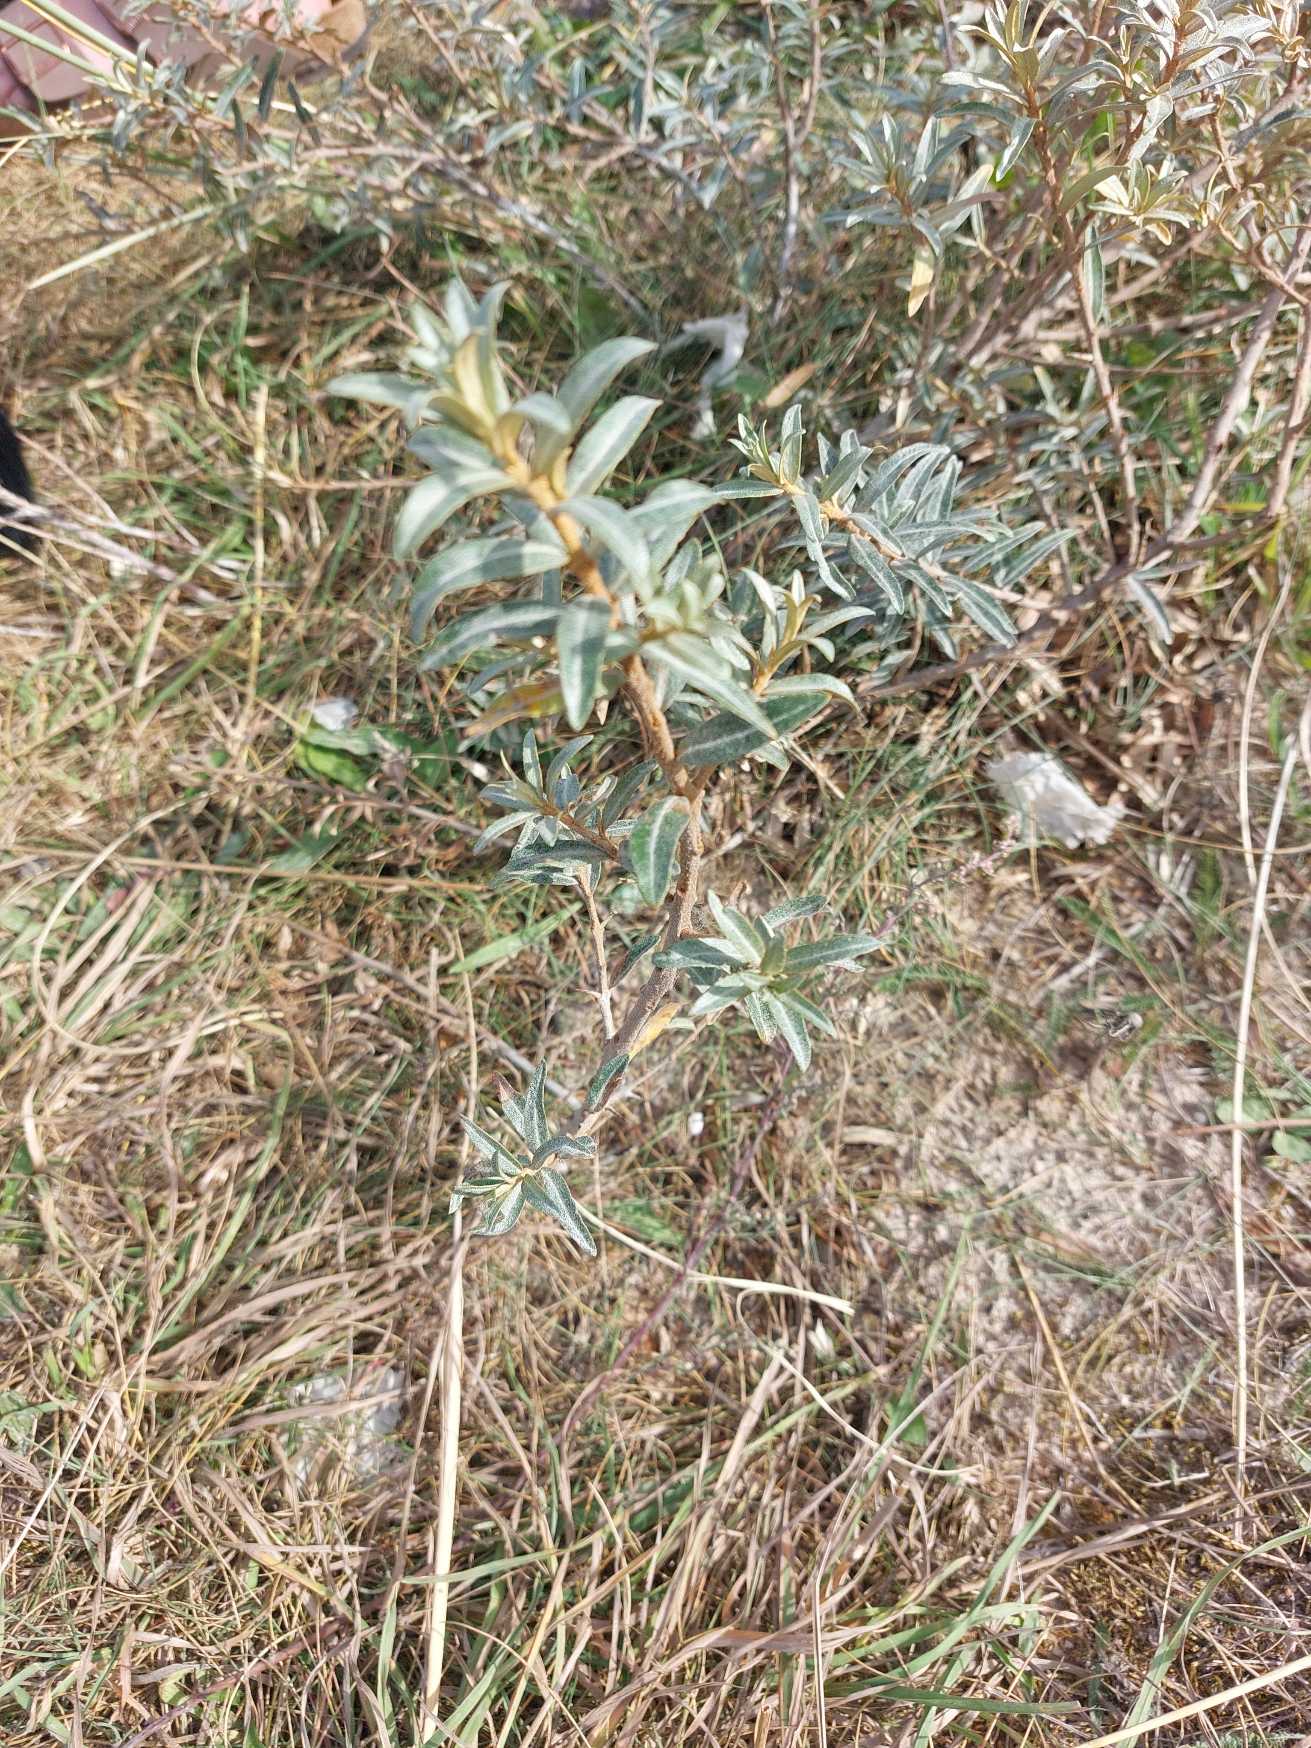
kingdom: Plantae
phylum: Tracheophyta
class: Magnoliopsida
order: Rosales
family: Elaeagnaceae
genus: Hippophae
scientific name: Hippophae rhamnoides
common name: Havtorn
